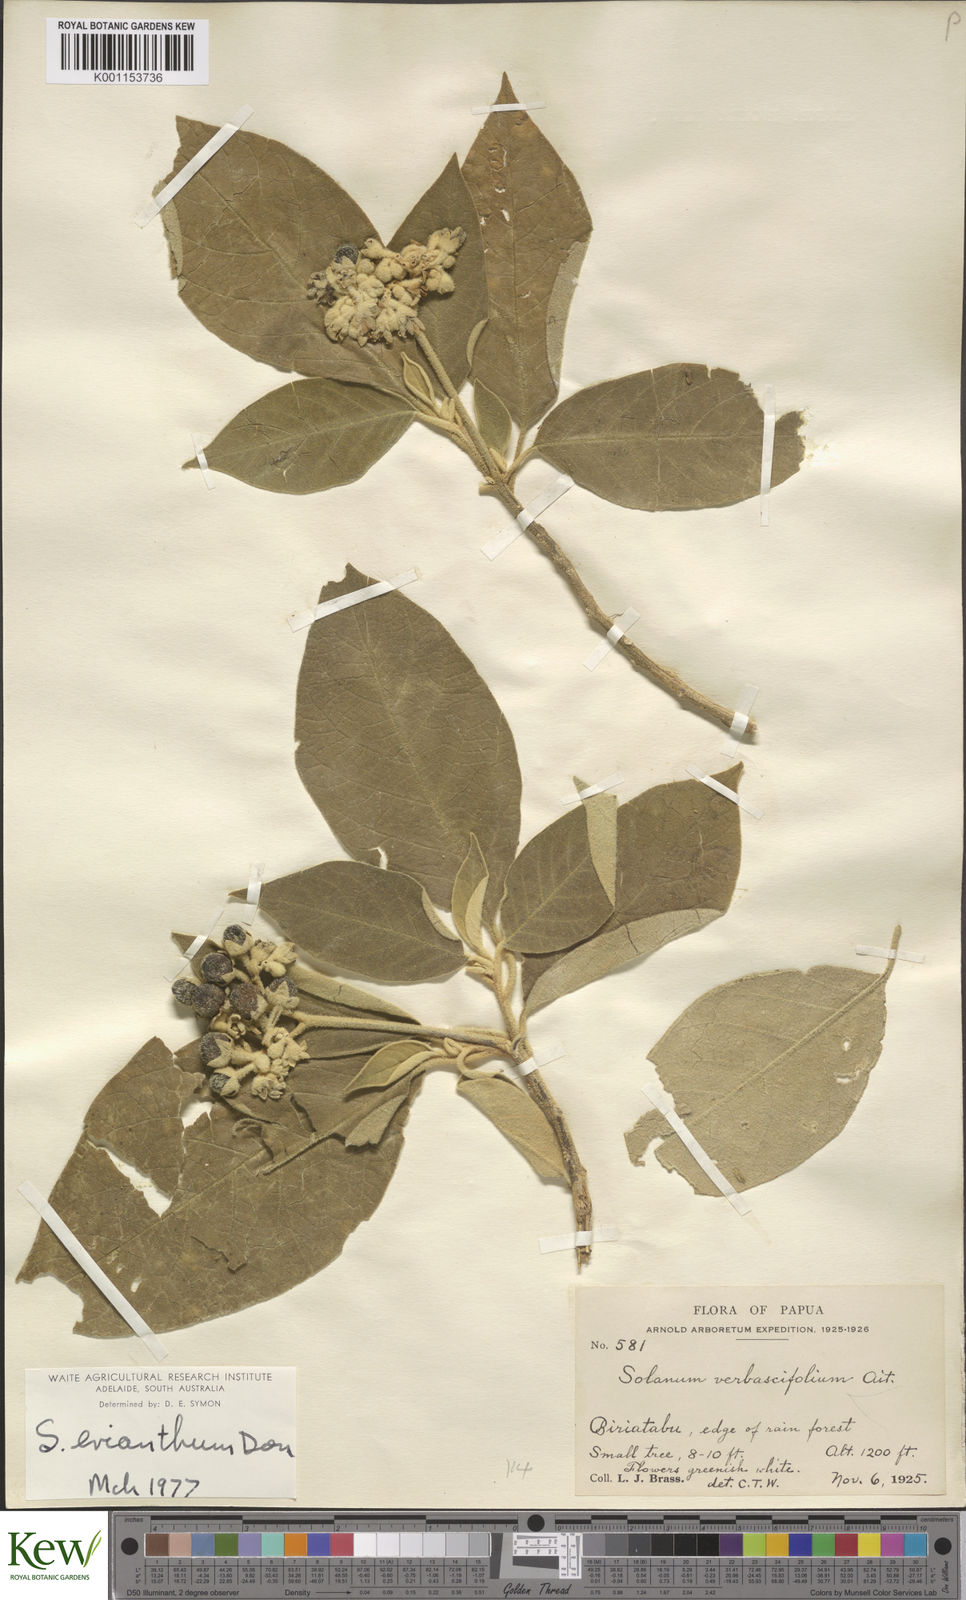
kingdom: Plantae
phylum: Tracheophyta
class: Magnoliopsida
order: Solanales
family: Solanaceae
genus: Solanum
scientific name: Solanum erianthum
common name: Tobacco-tree
